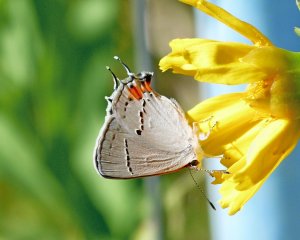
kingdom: Animalia
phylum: Arthropoda
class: Insecta
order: Lepidoptera
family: Lycaenidae
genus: Strymon
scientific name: Strymon melinus
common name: Gray Hairstreak
